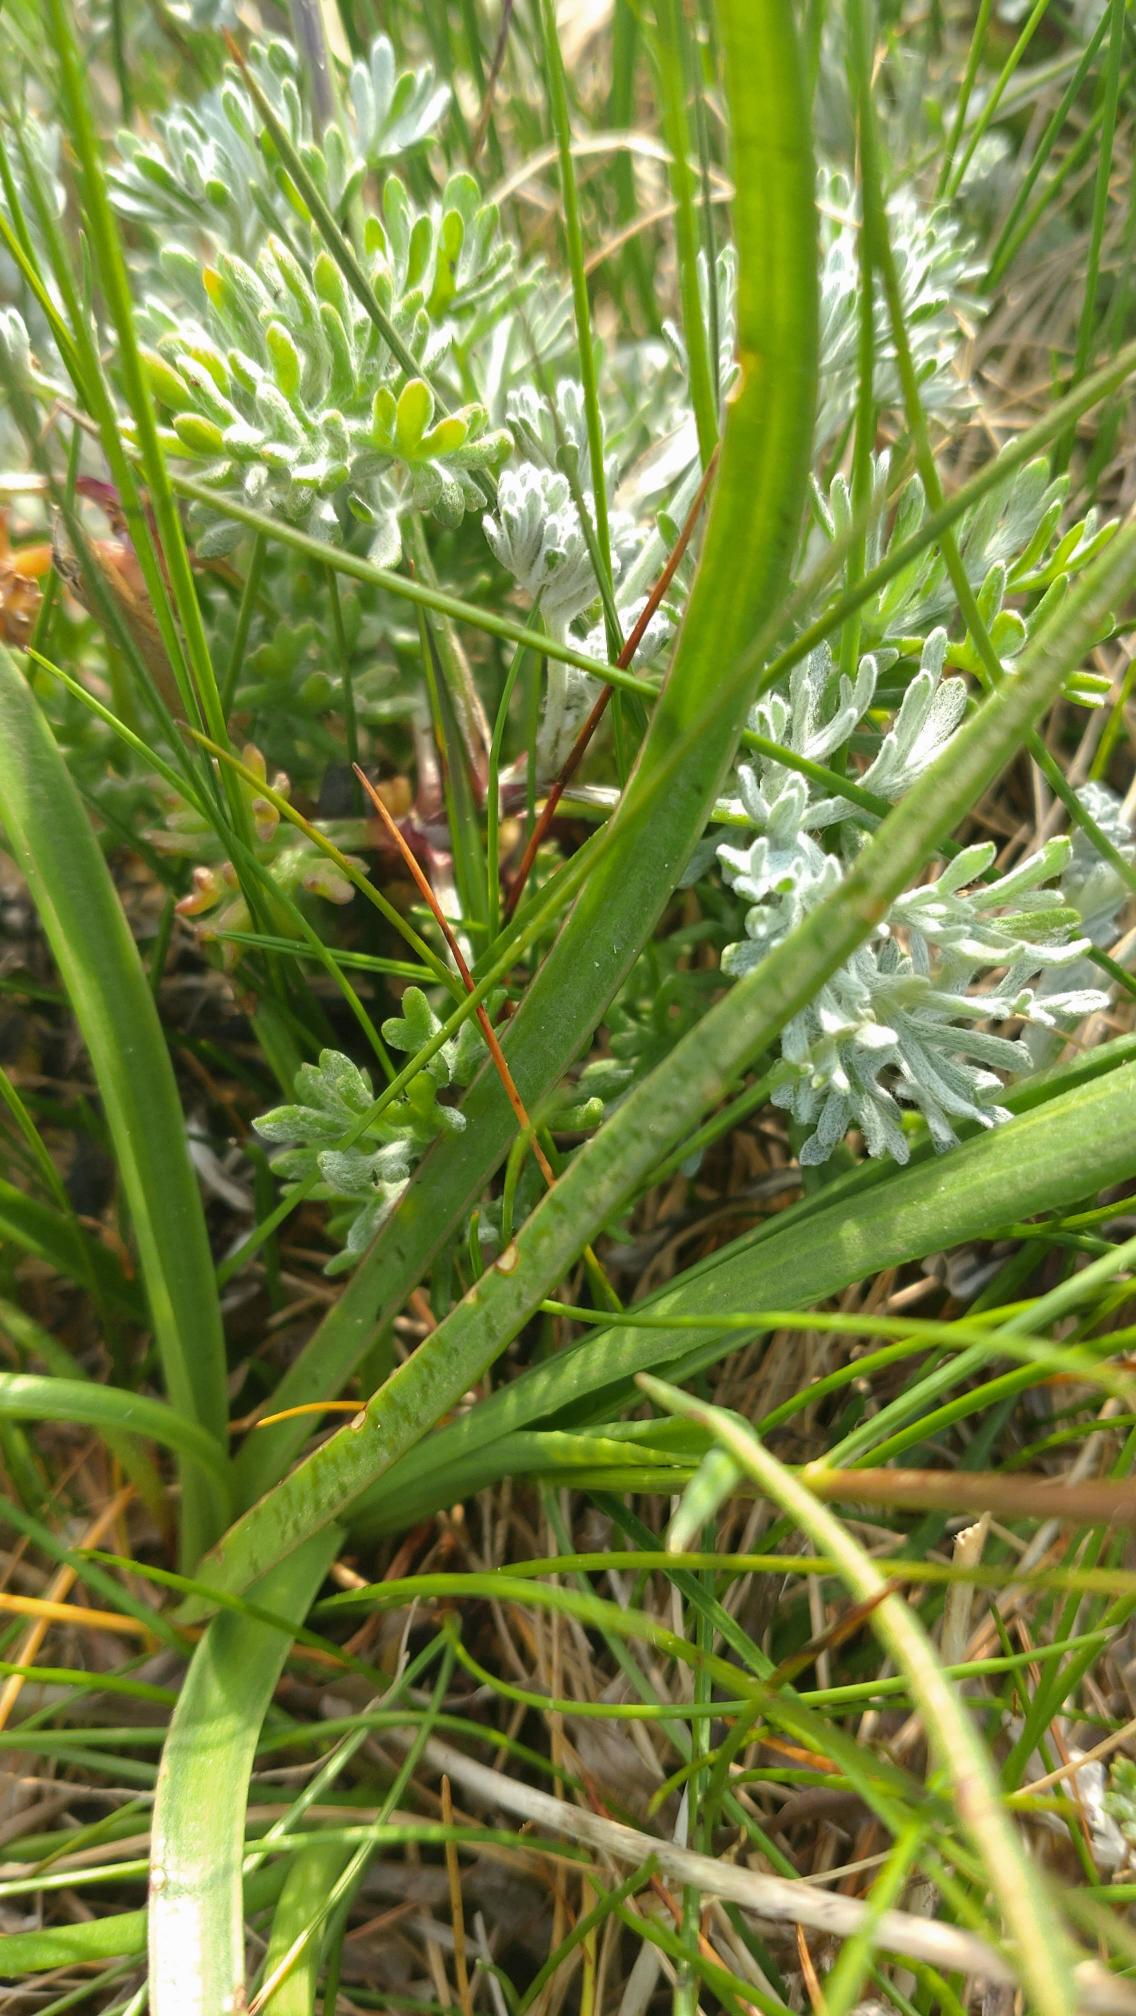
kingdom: Plantae
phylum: Tracheophyta
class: Magnoliopsida
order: Lamiales
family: Plantaginaceae
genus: Plantago
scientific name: Plantago maritima
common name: Strand-vejbred
